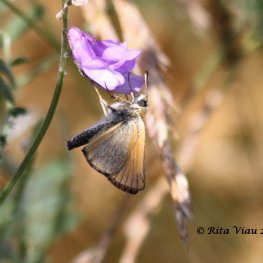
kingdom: Animalia
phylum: Arthropoda
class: Insecta
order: Lepidoptera
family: Hesperiidae
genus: Thymelicus
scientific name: Thymelicus lineola
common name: European Skipper
